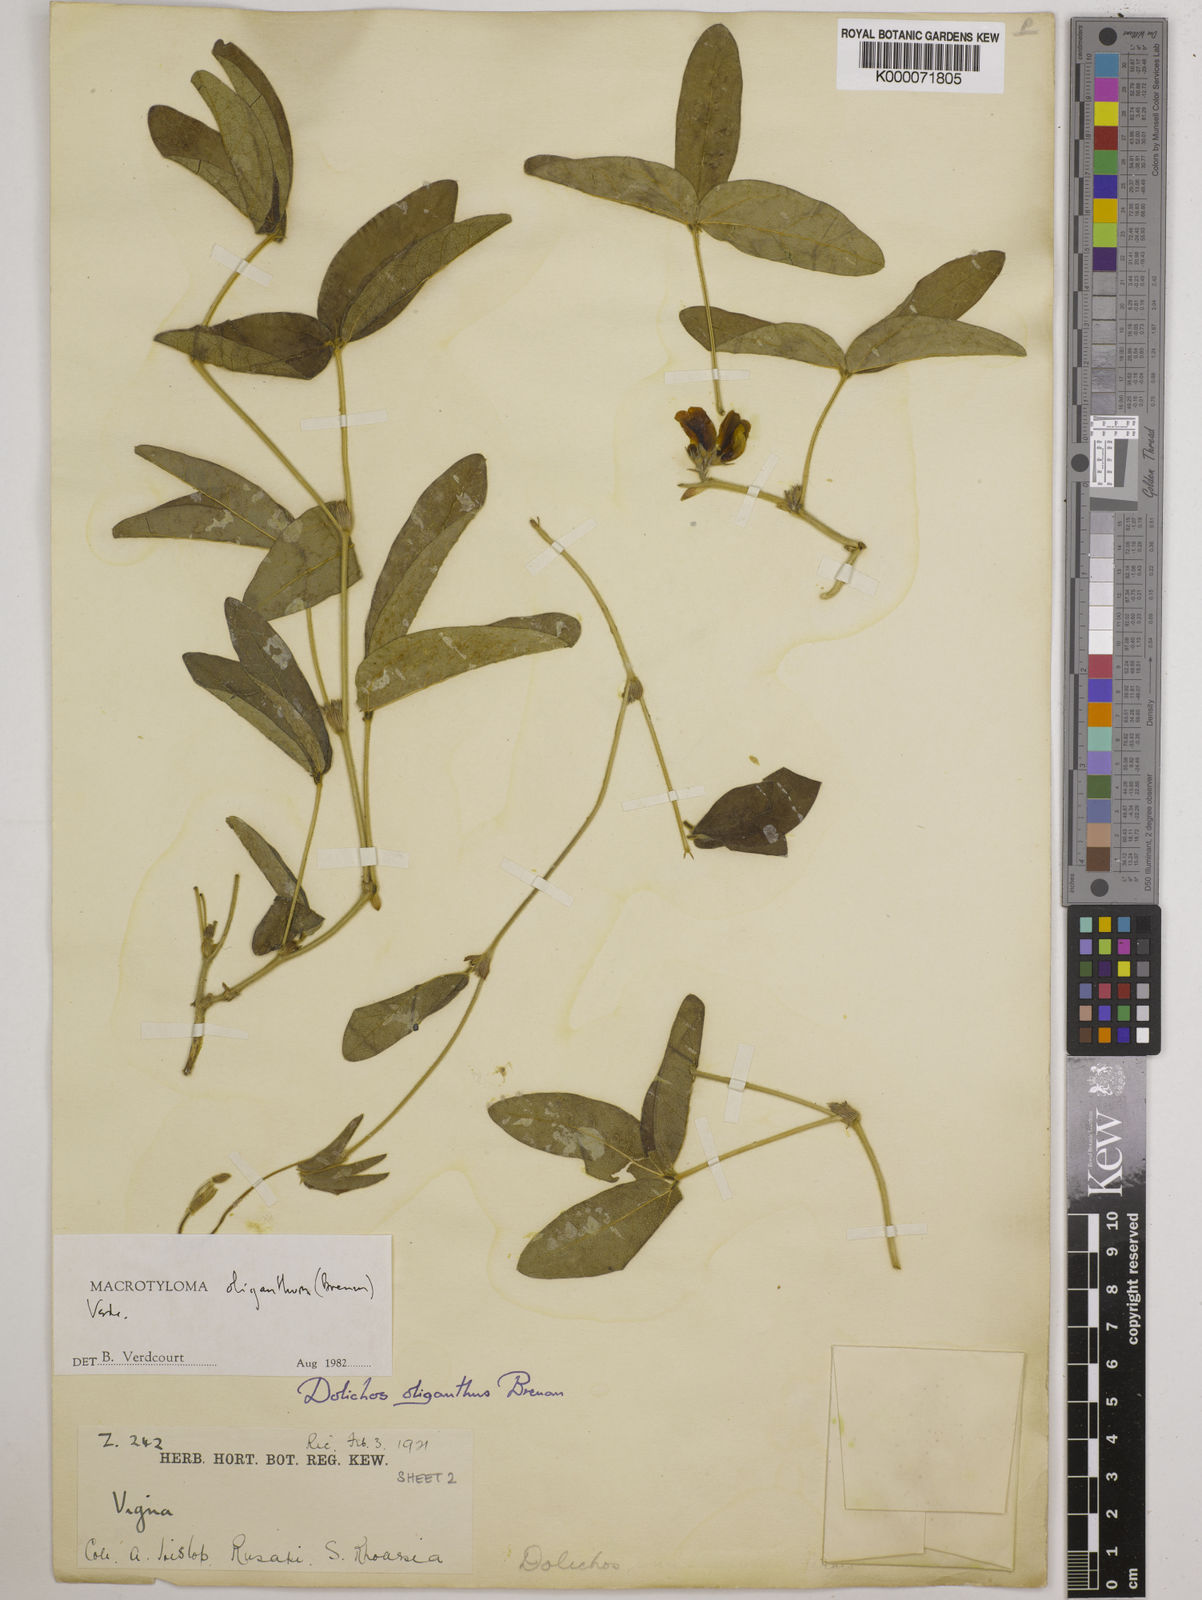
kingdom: Plantae
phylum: Tracheophyta
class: Magnoliopsida
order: Fabales
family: Fabaceae
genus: Macrotyloma
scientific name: Macrotyloma oliganthum
